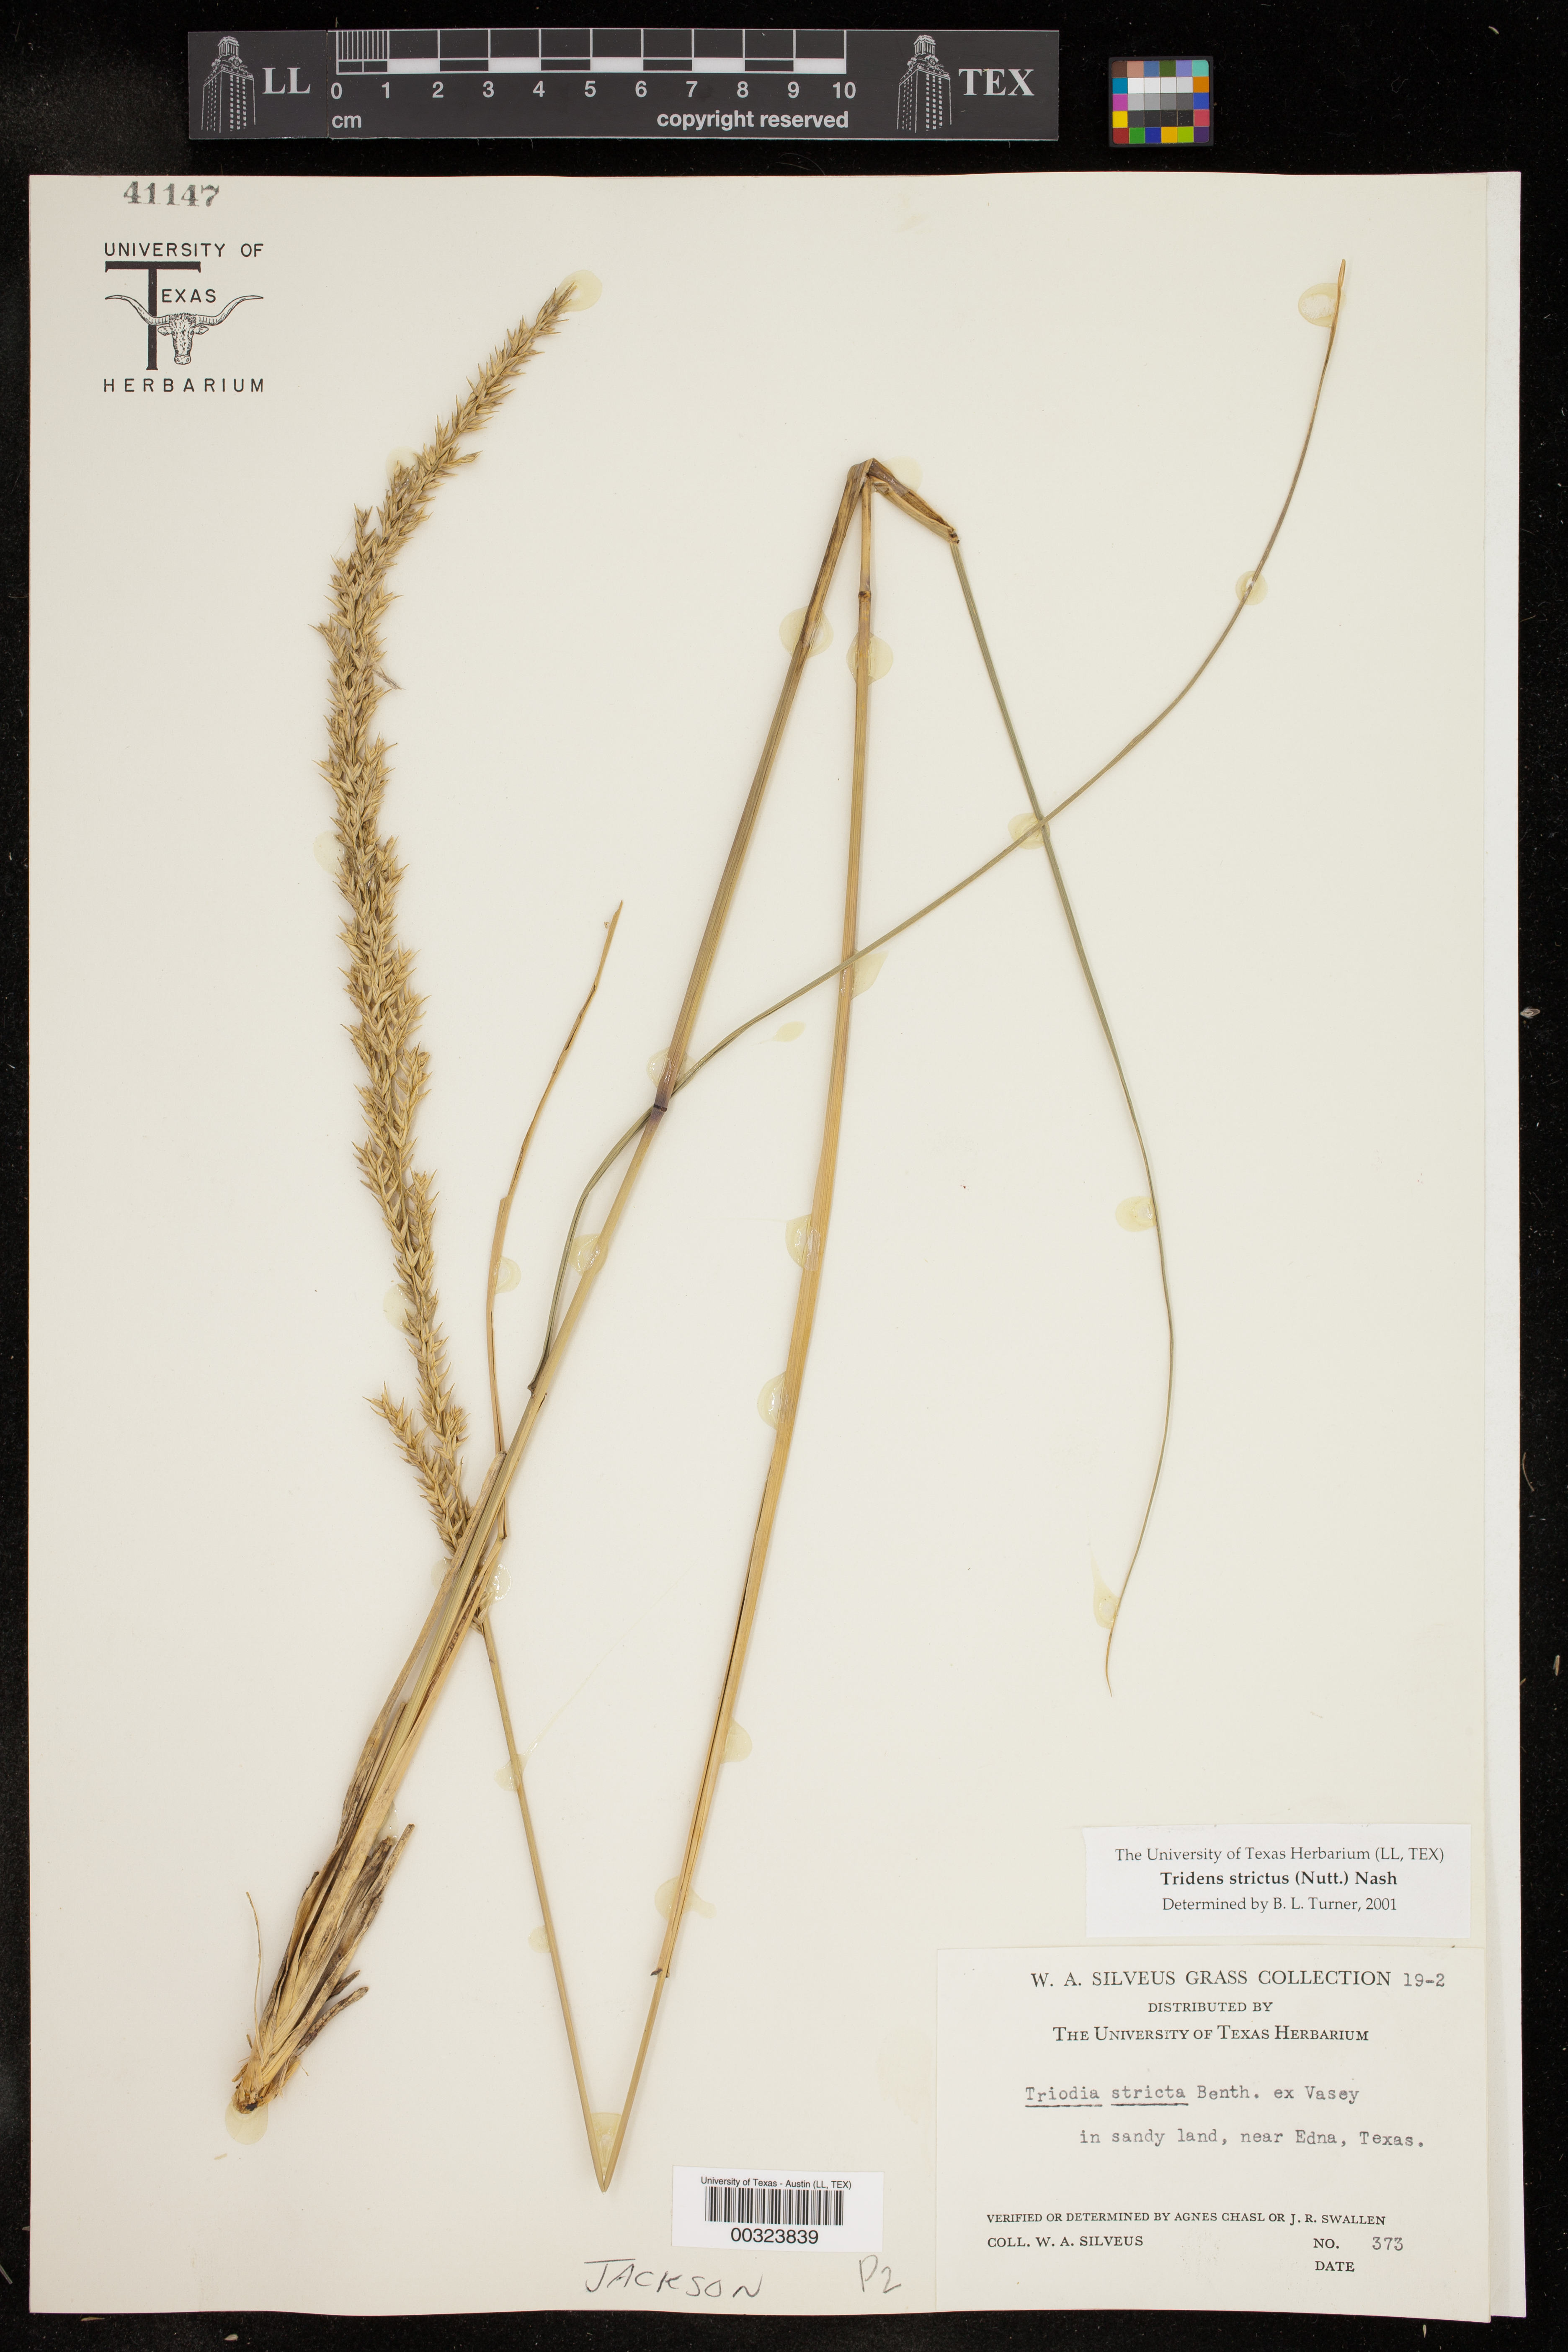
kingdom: Plantae
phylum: Tracheophyta
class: Liliopsida
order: Poales
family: Poaceae
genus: Tridens
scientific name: Tridens strictus
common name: Long-spike tridens
